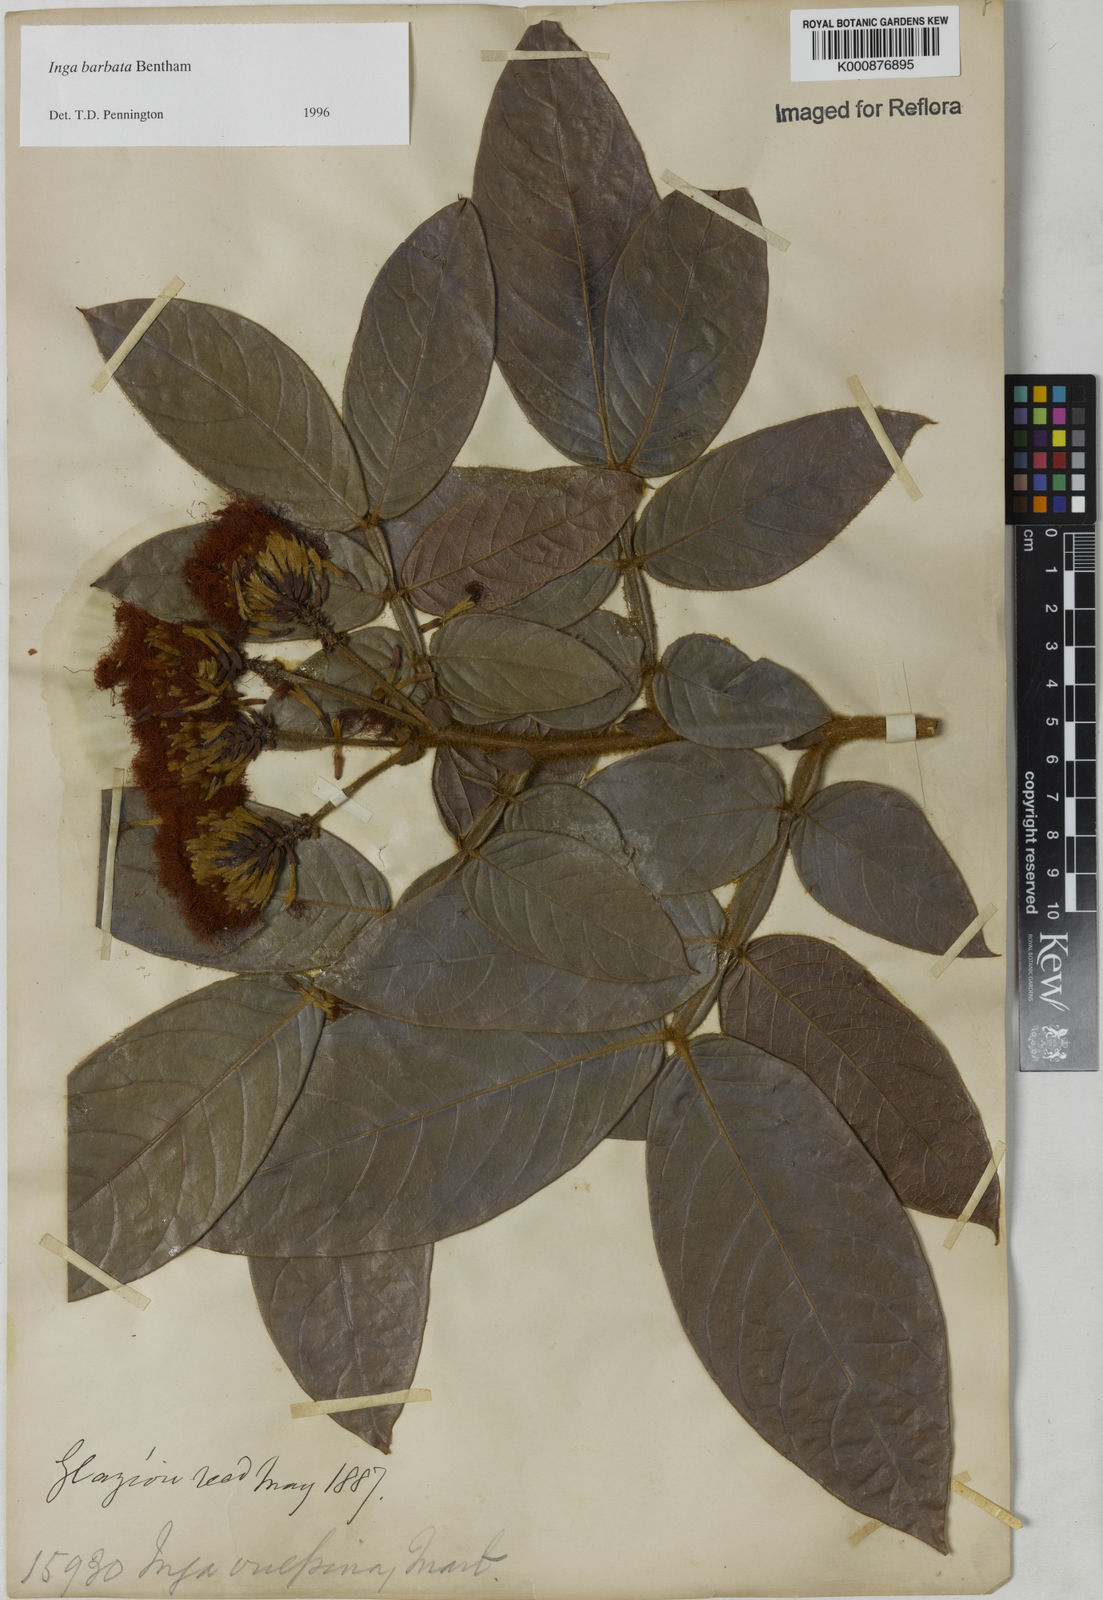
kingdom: Plantae
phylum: Tracheophyta
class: Magnoliopsida
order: Fabales
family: Fabaceae
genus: Inga
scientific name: Inga barbata
